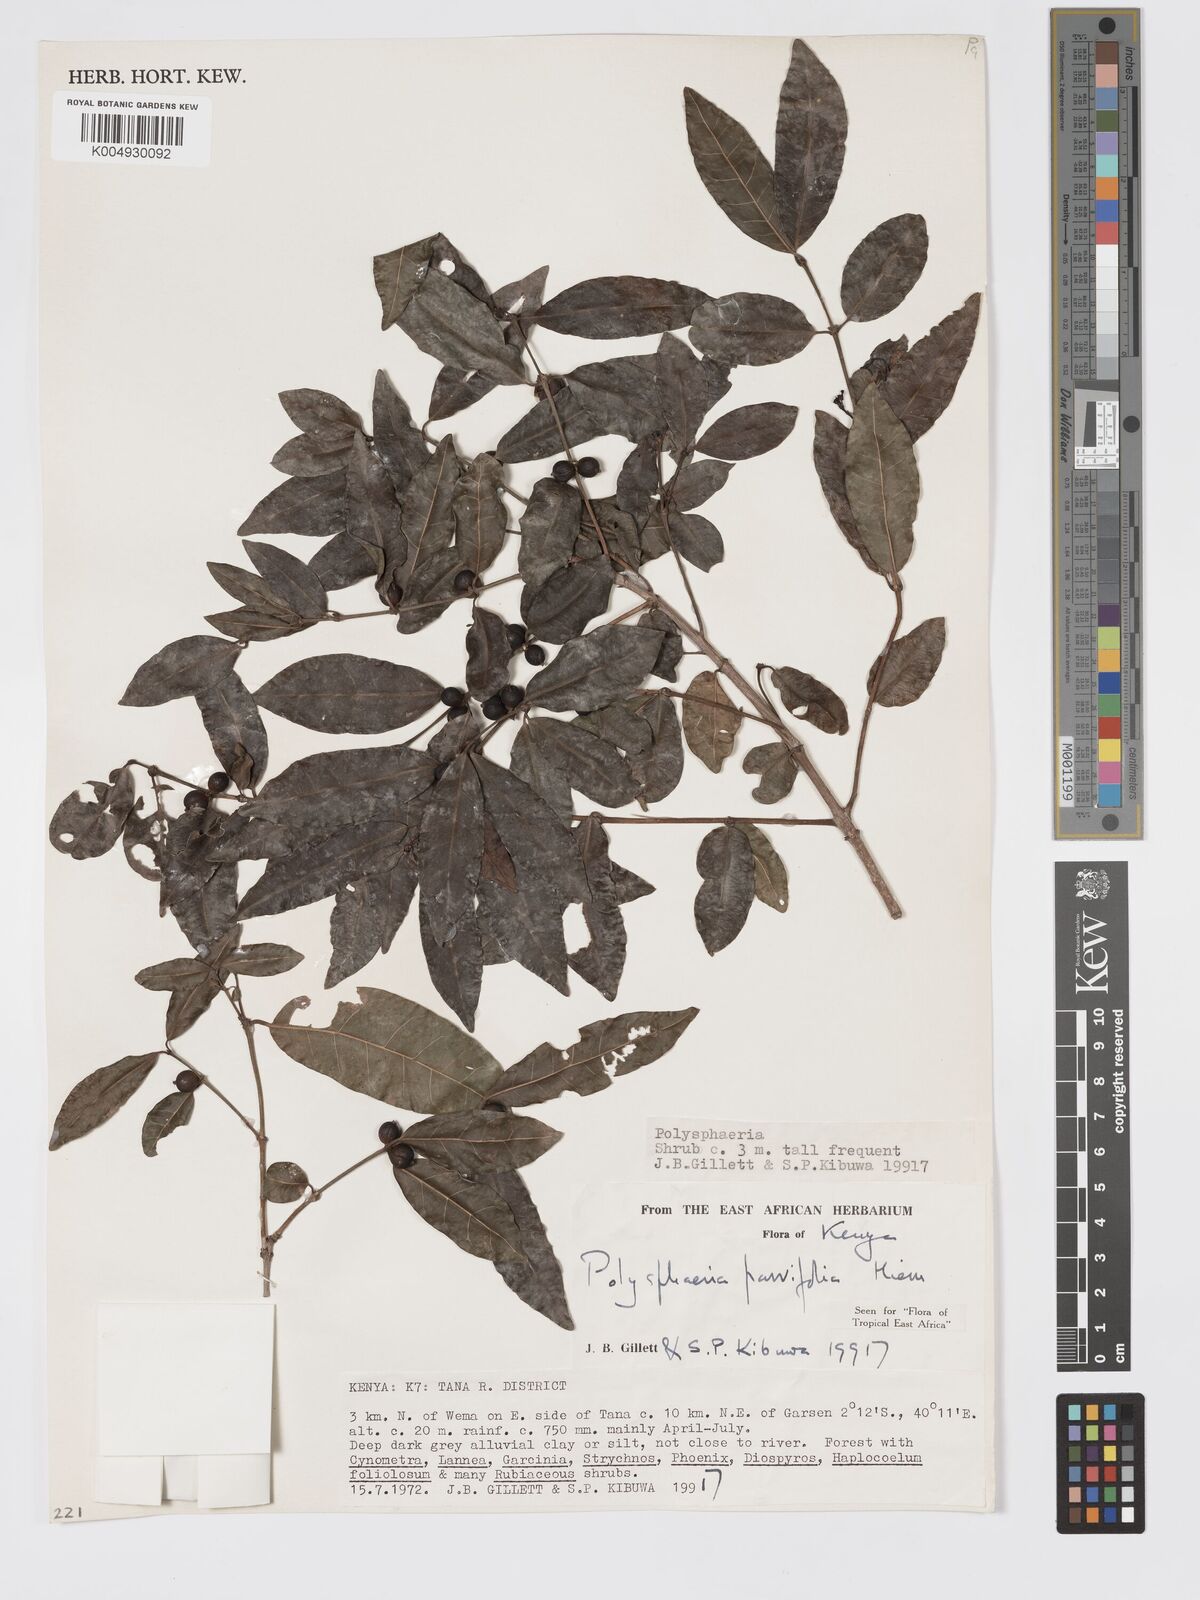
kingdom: Plantae
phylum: Tracheophyta
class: Magnoliopsida
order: Gentianales
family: Rubiaceae
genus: Eumachia
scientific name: Eumachia parviflora
